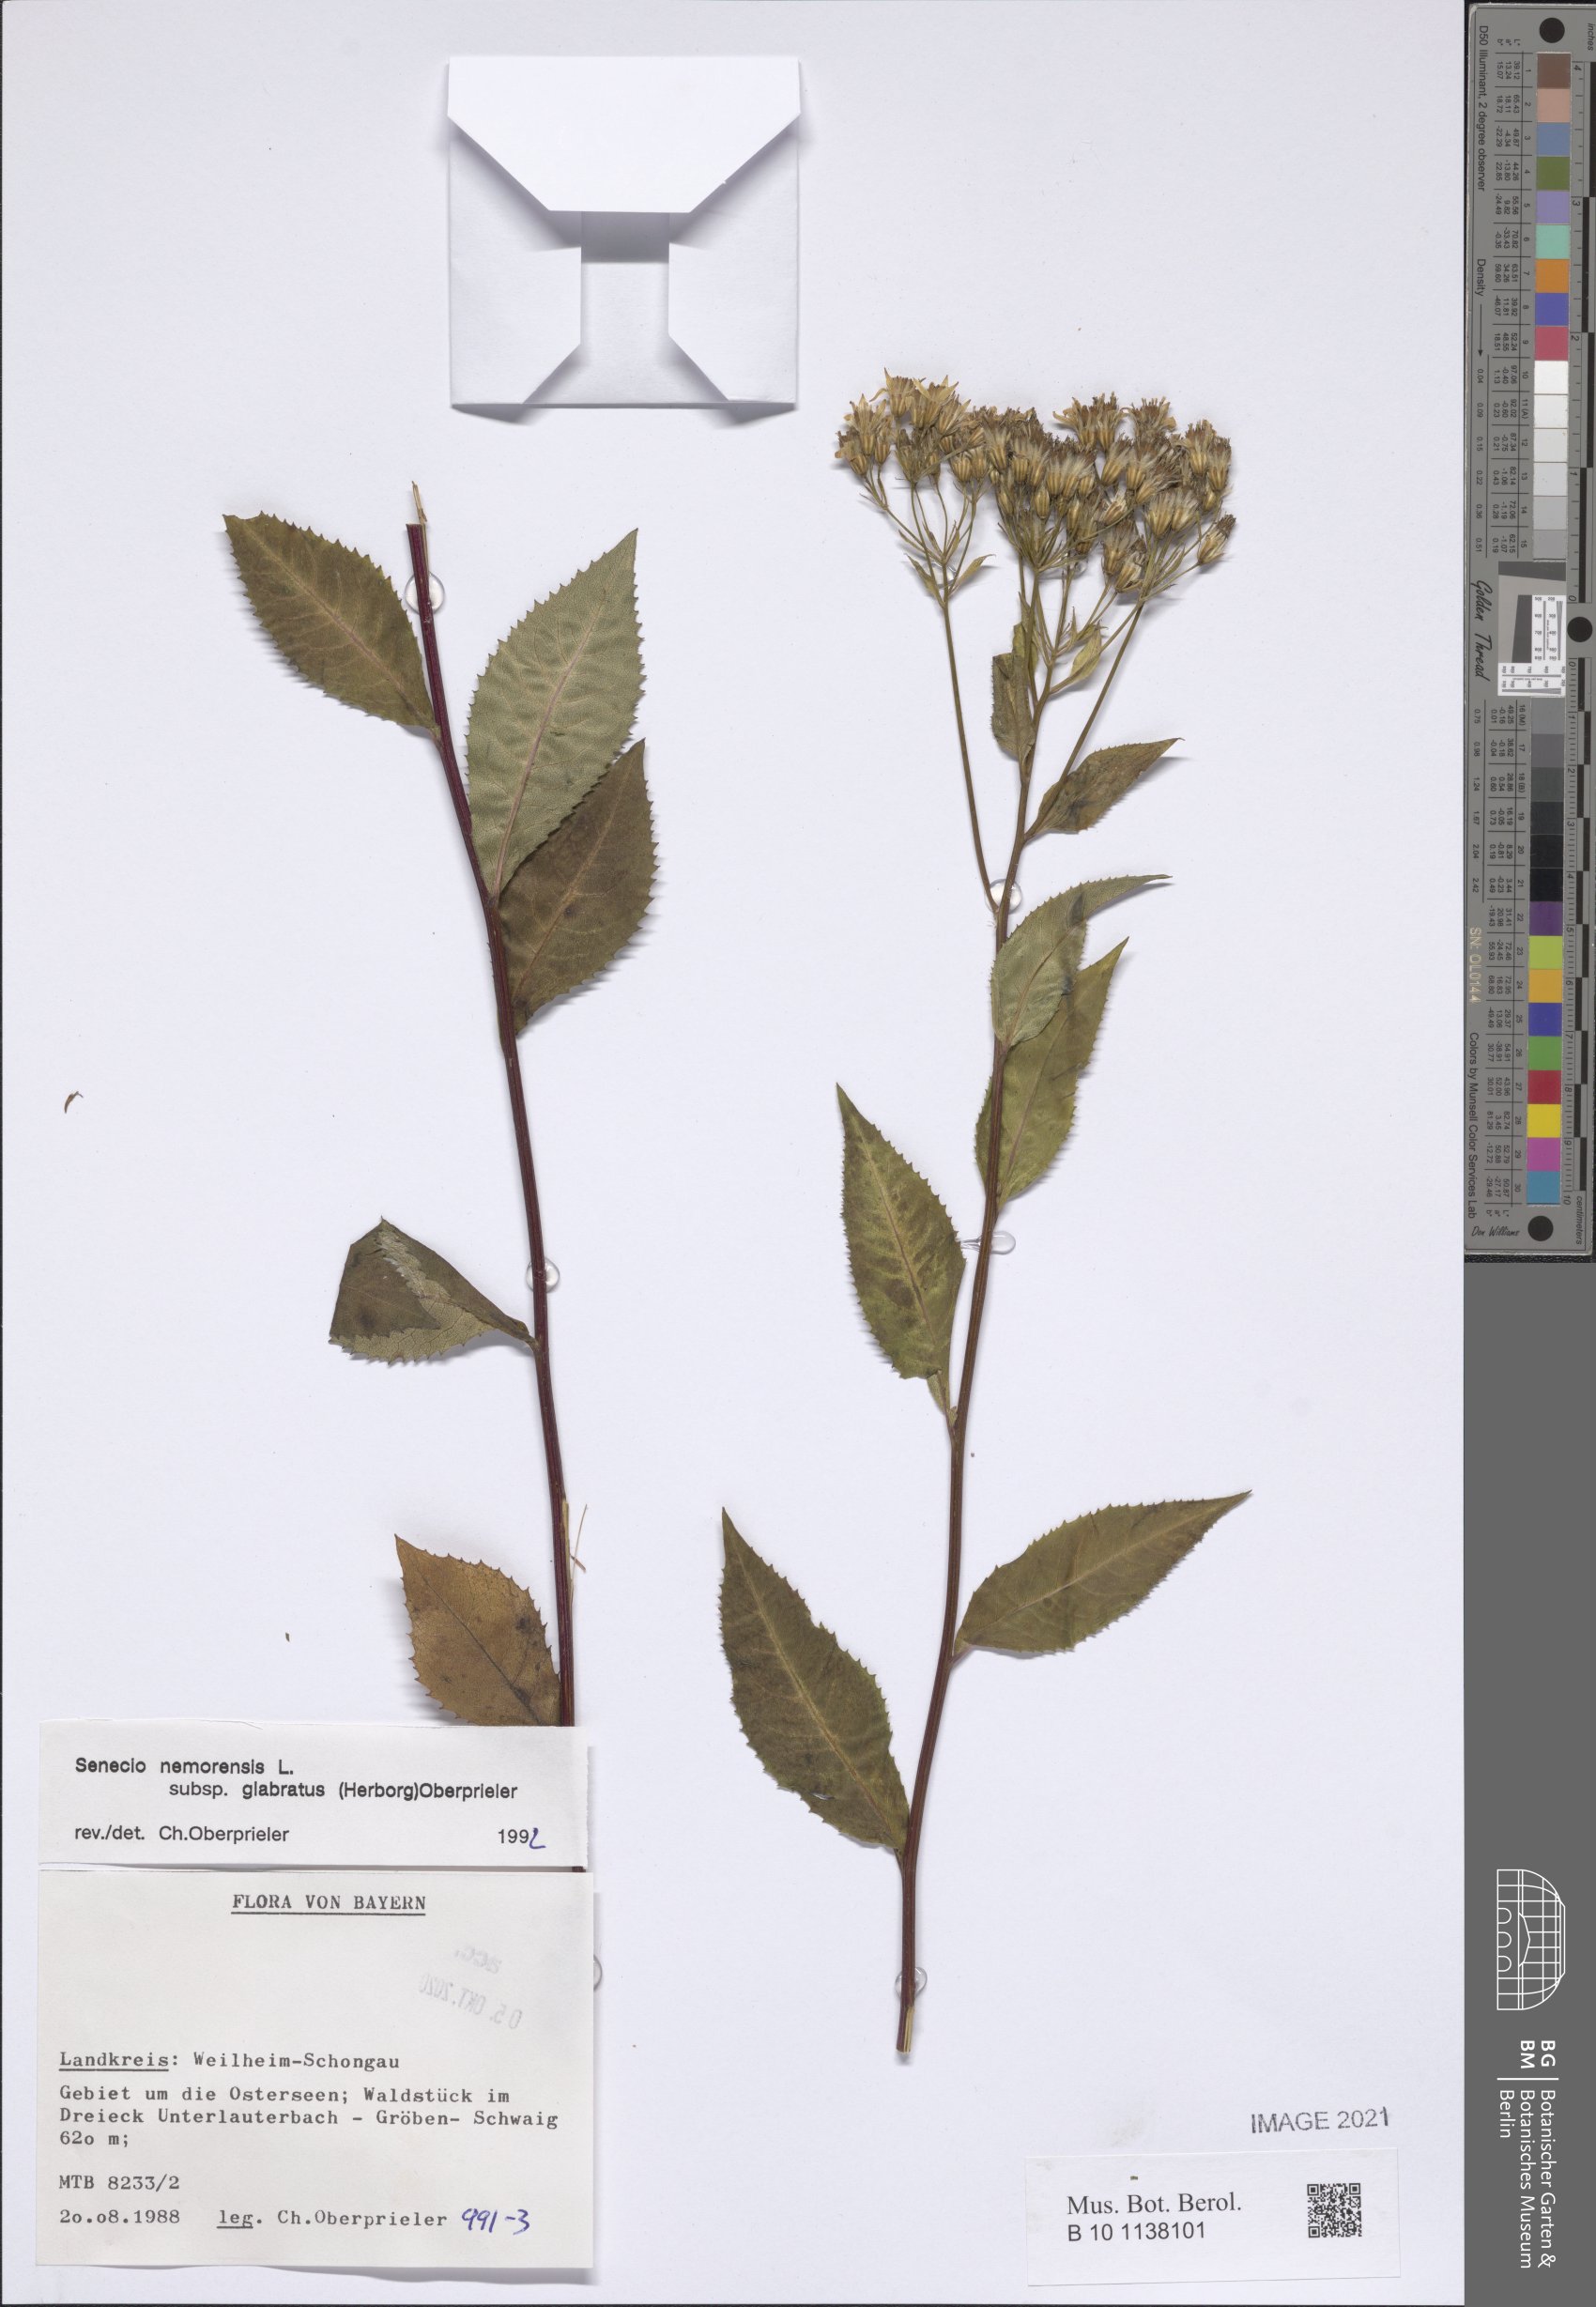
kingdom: Plantae
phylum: Tracheophyta
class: Magnoliopsida
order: Asterales
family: Asteraceae
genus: Senecio
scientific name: Senecio germanicus
